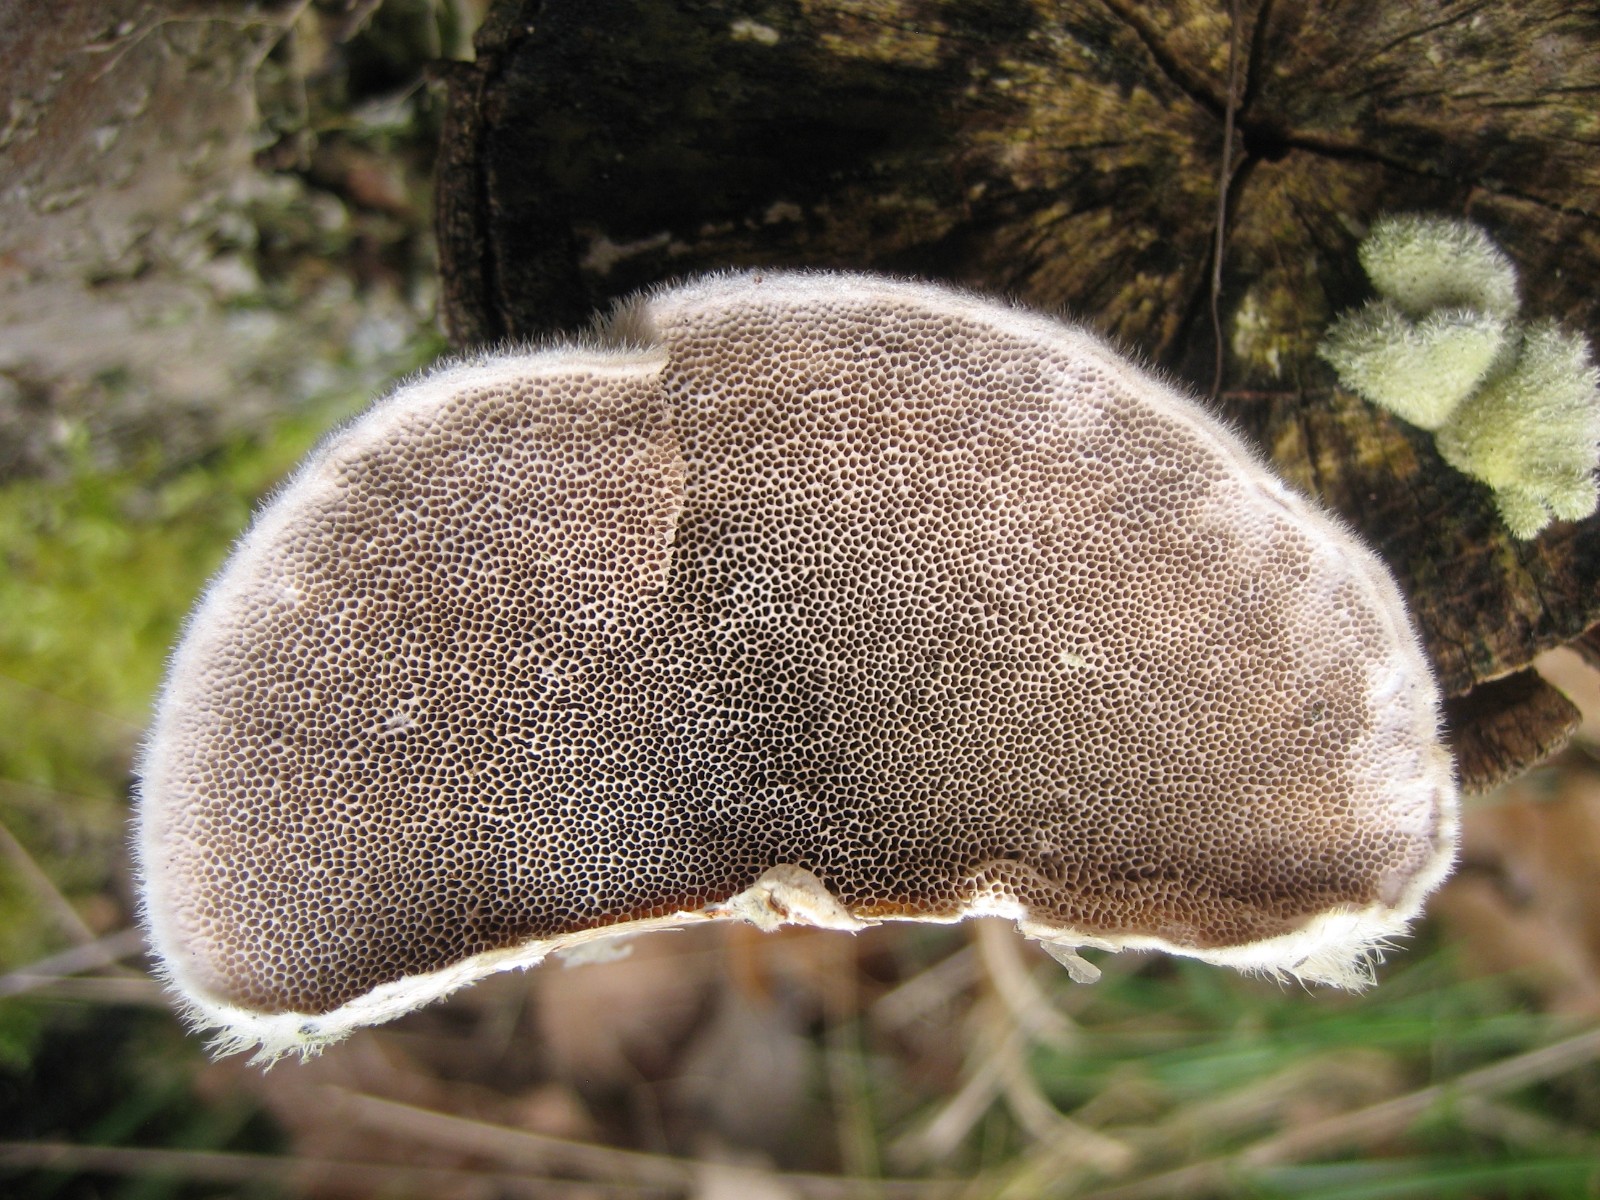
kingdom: Fungi
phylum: Basidiomycota
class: Agaricomycetes
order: Polyporales
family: Polyporaceae
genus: Trametes
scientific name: Trametes hirsuta
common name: håret læderporesvamp
